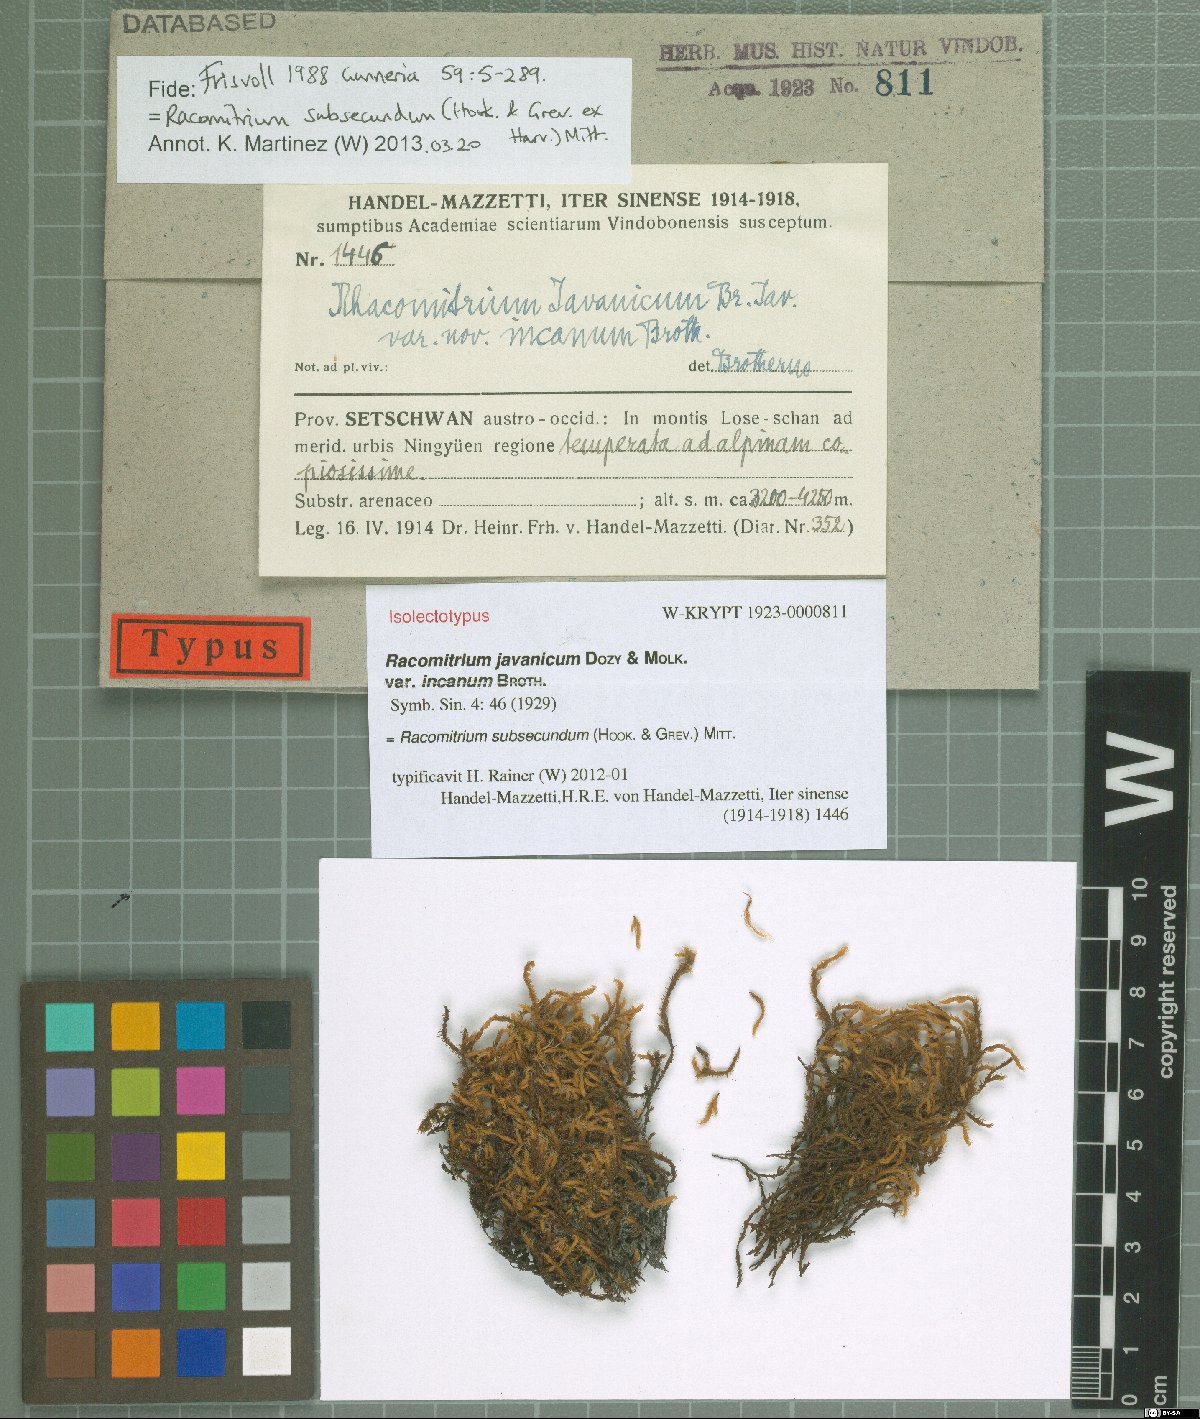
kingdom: Plantae
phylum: Bryophyta
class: Bryopsida
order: Grimmiales
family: Grimmiaceae
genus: Bucklandiella
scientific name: Bucklandiella subsecunda
